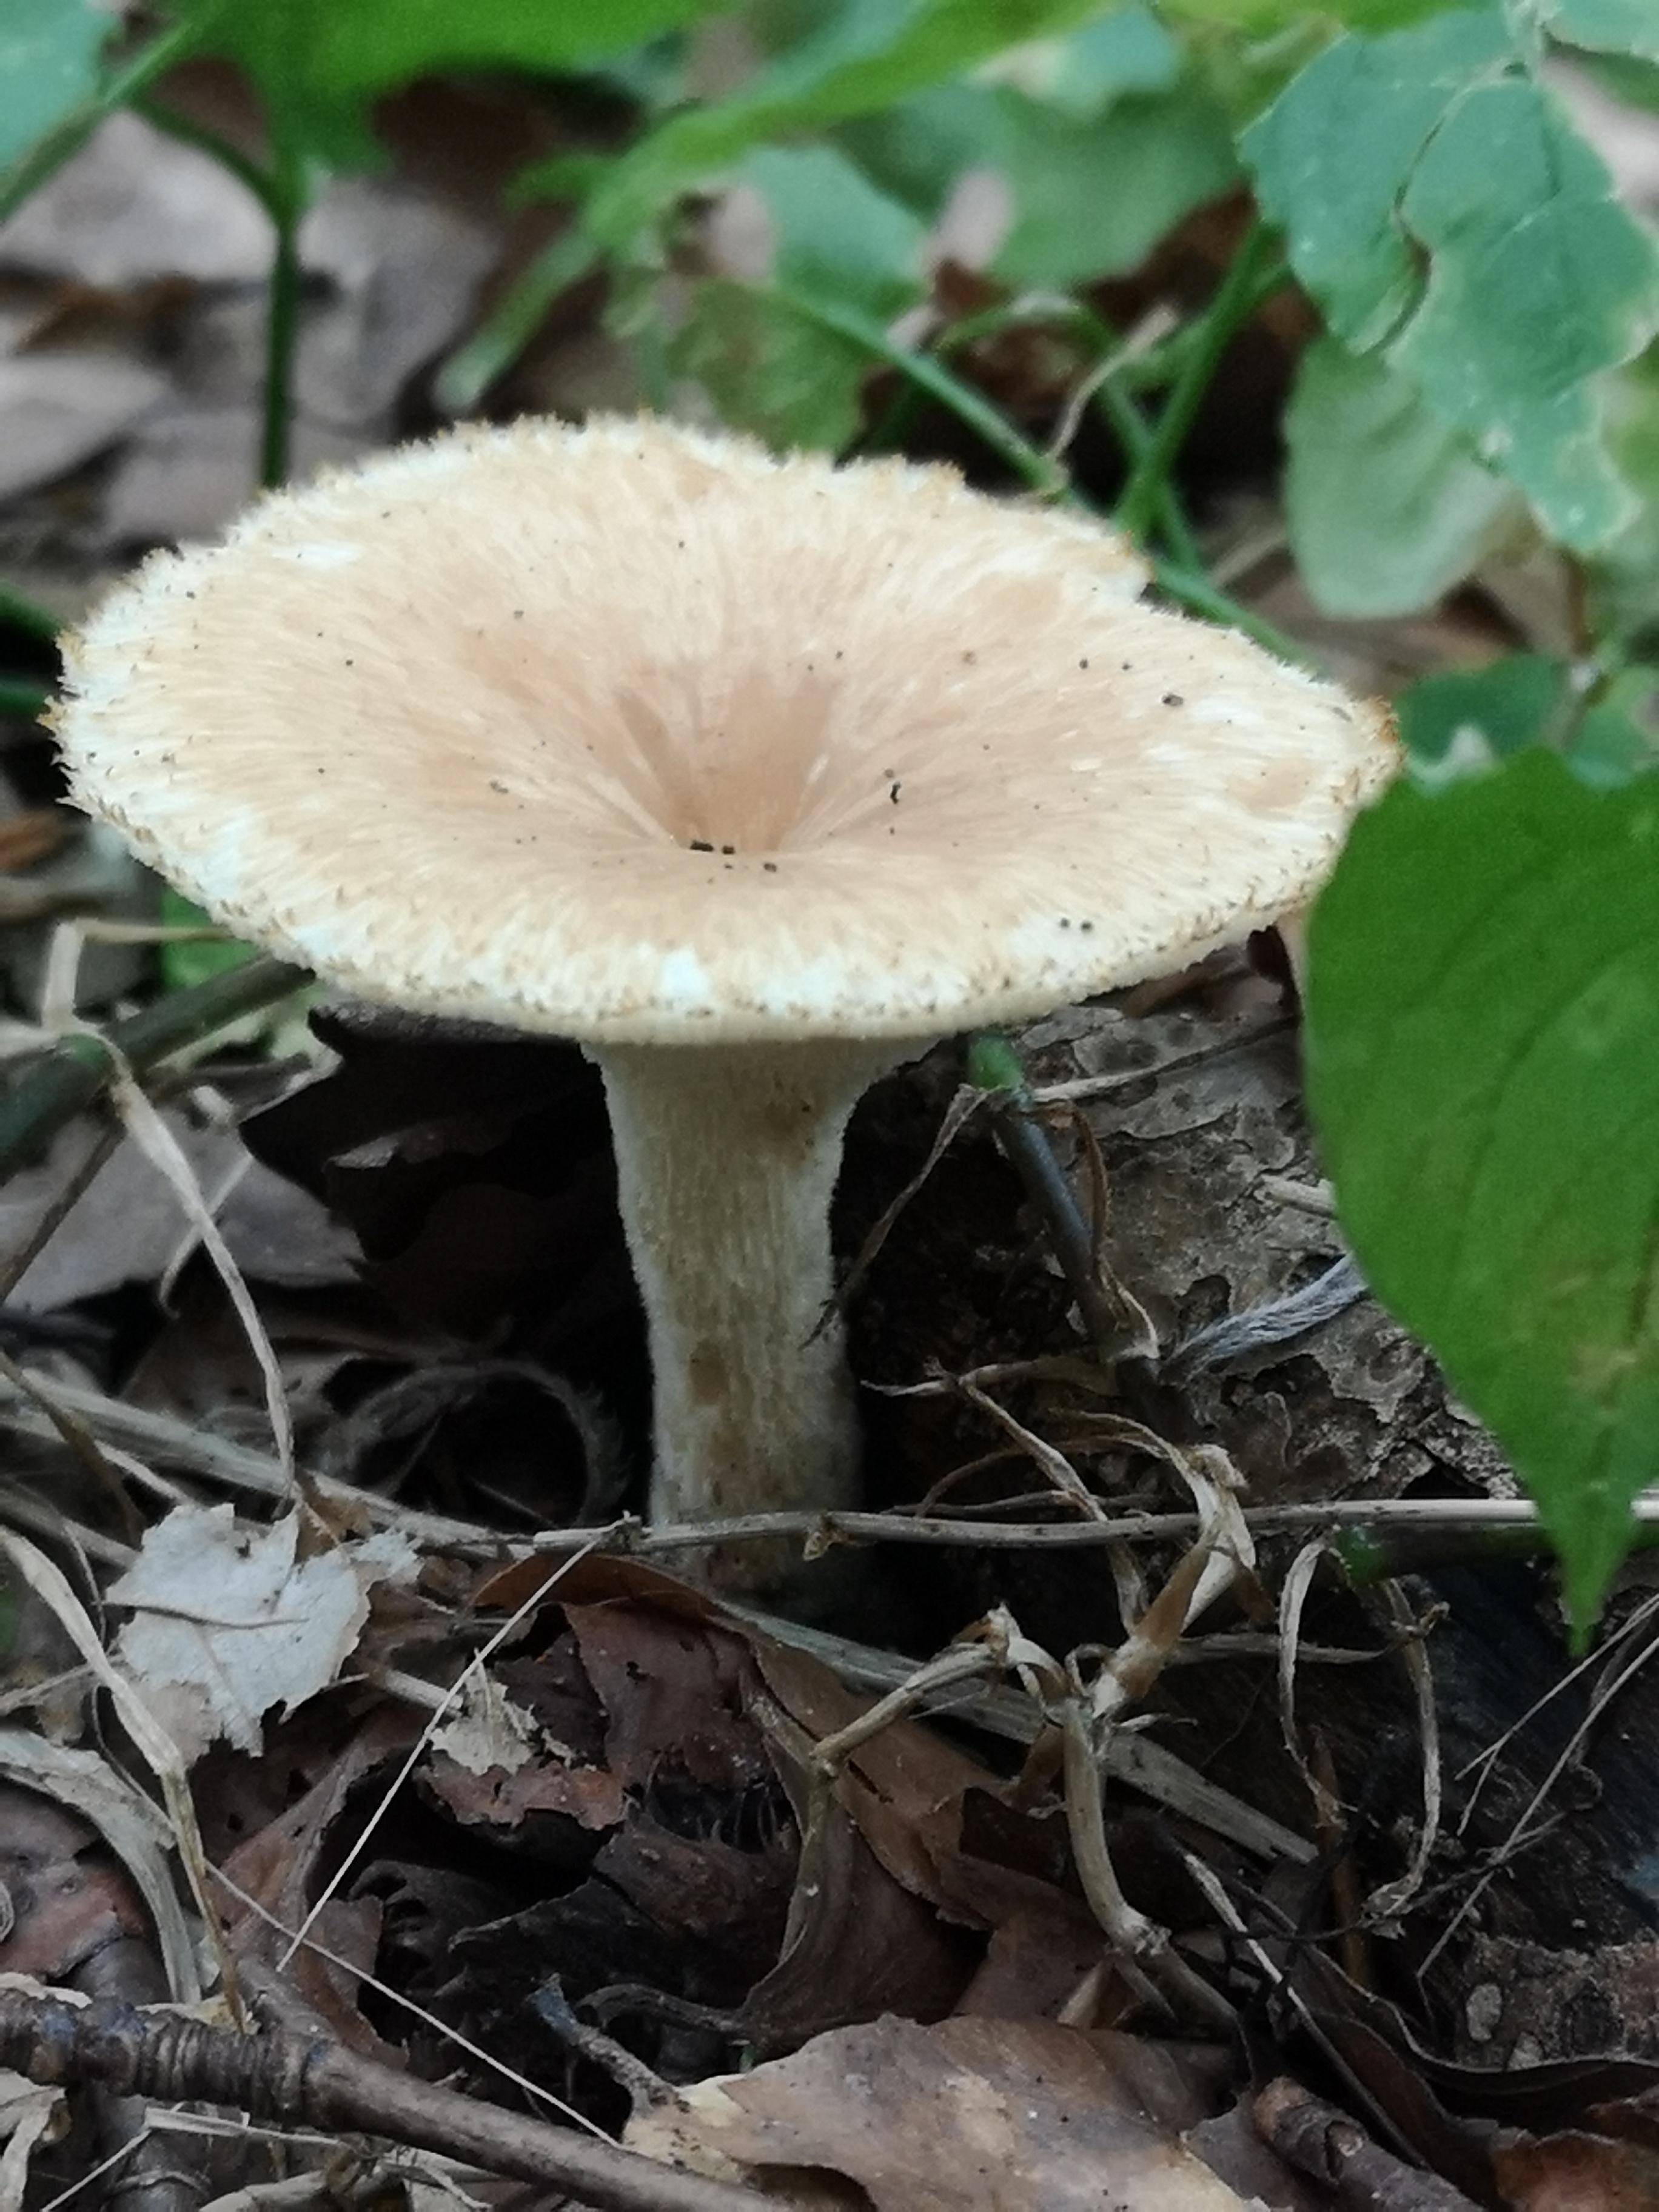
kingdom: Fungi
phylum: Basidiomycota
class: Agaricomycetes
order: Polyporales
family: Polyporaceae
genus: Polyporus
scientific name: Polyporus tuberaster
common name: knoldet stilkporesvamp
